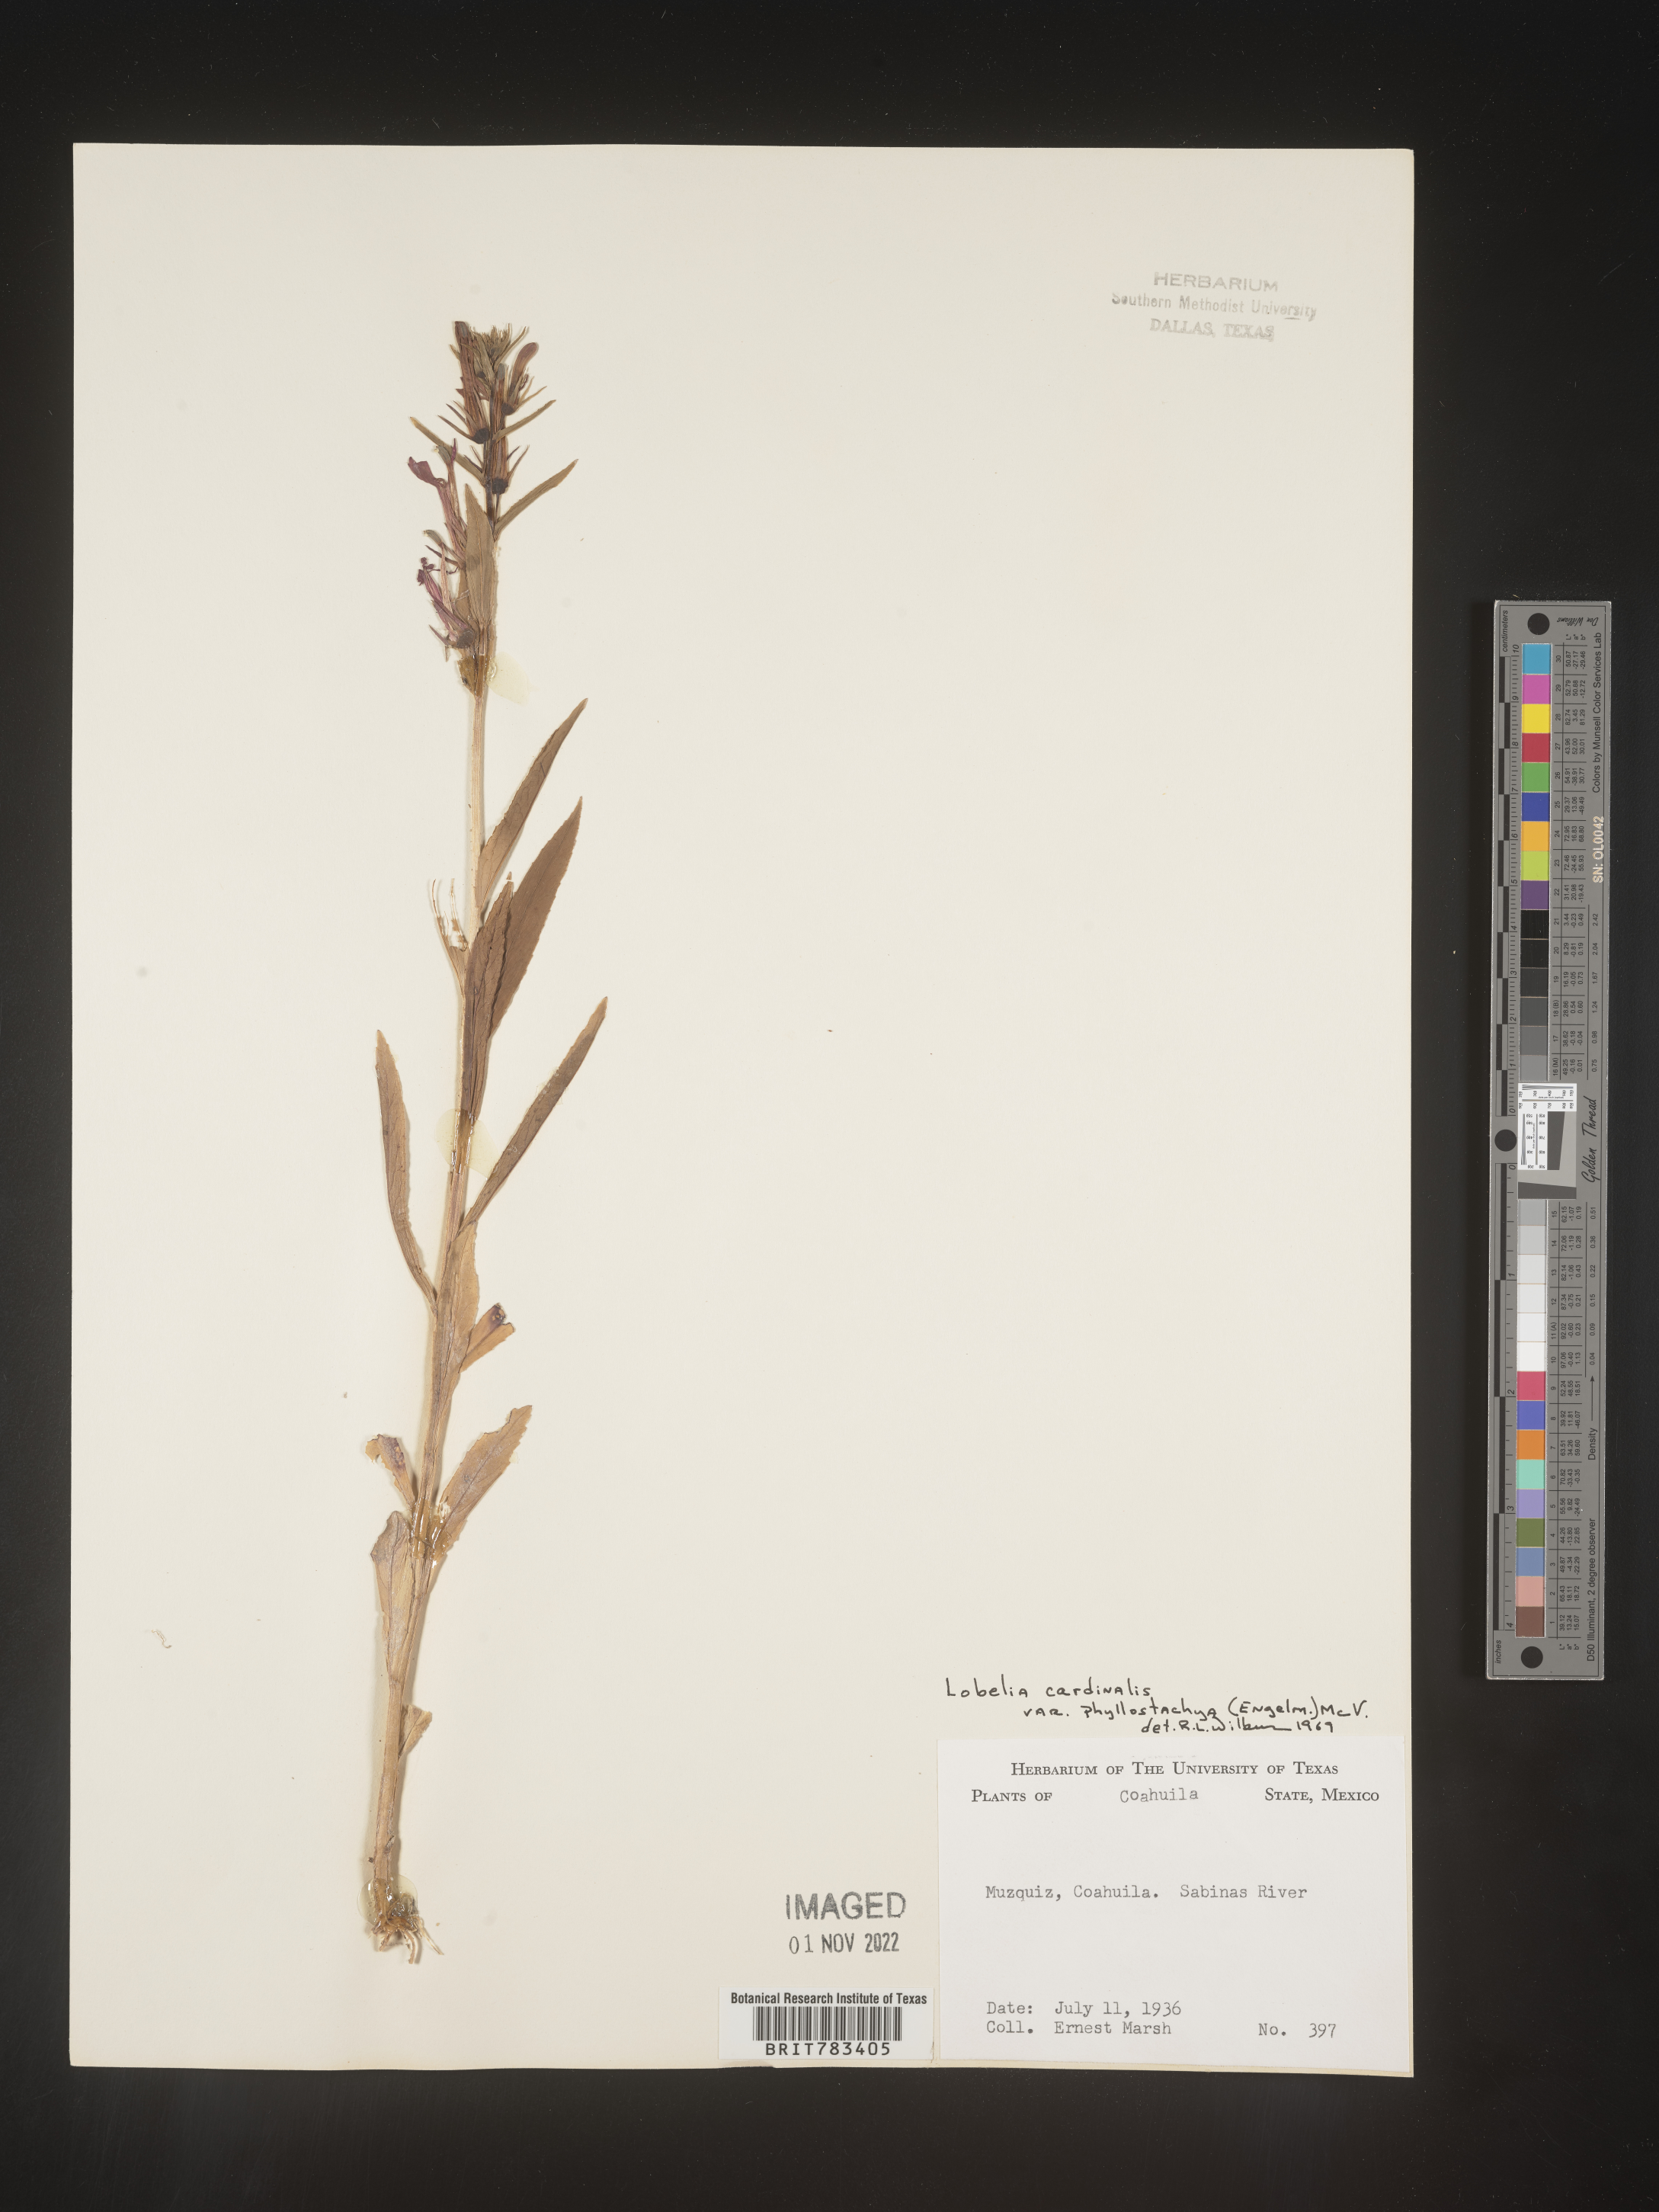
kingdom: Plantae
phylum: Tracheophyta
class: Magnoliopsida
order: Asterales
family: Campanulaceae
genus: Lobelia
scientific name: Lobelia
